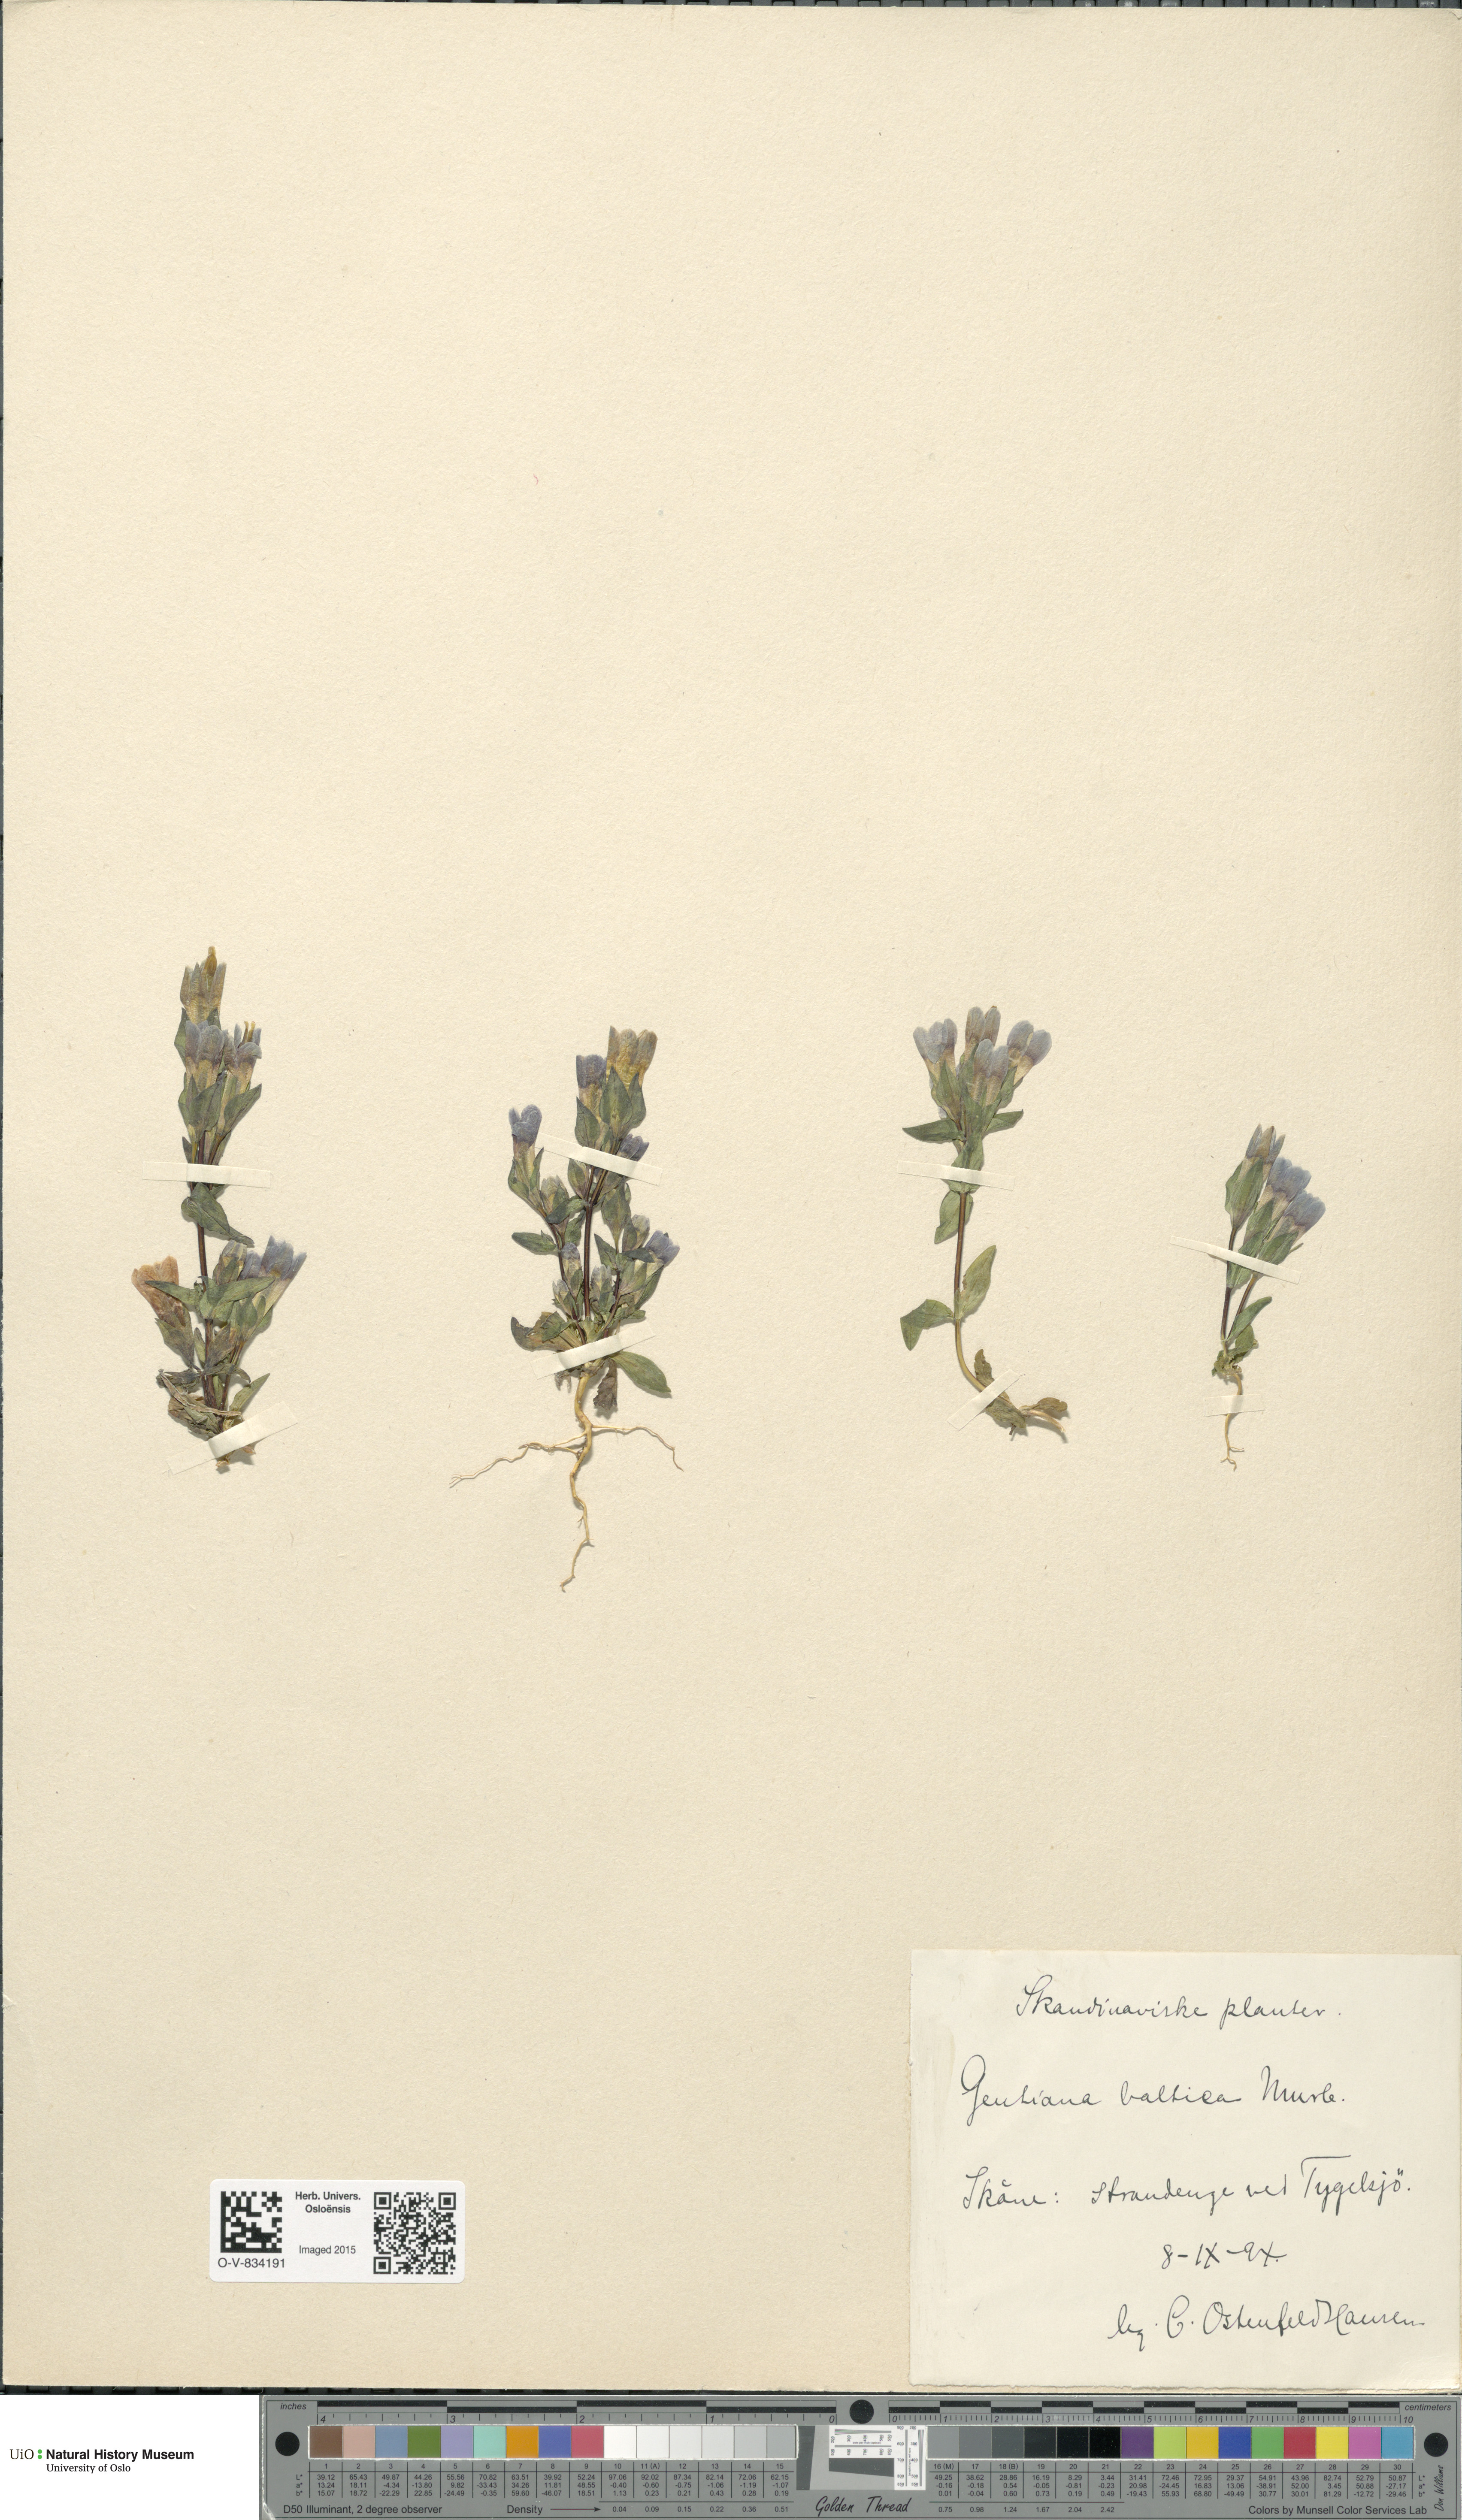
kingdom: Plantae
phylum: Tracheophyta
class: Magnoliopsida
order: Gentianales
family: Gentianaceae
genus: Gentianella
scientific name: Gentianella campestris
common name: Field gentian
